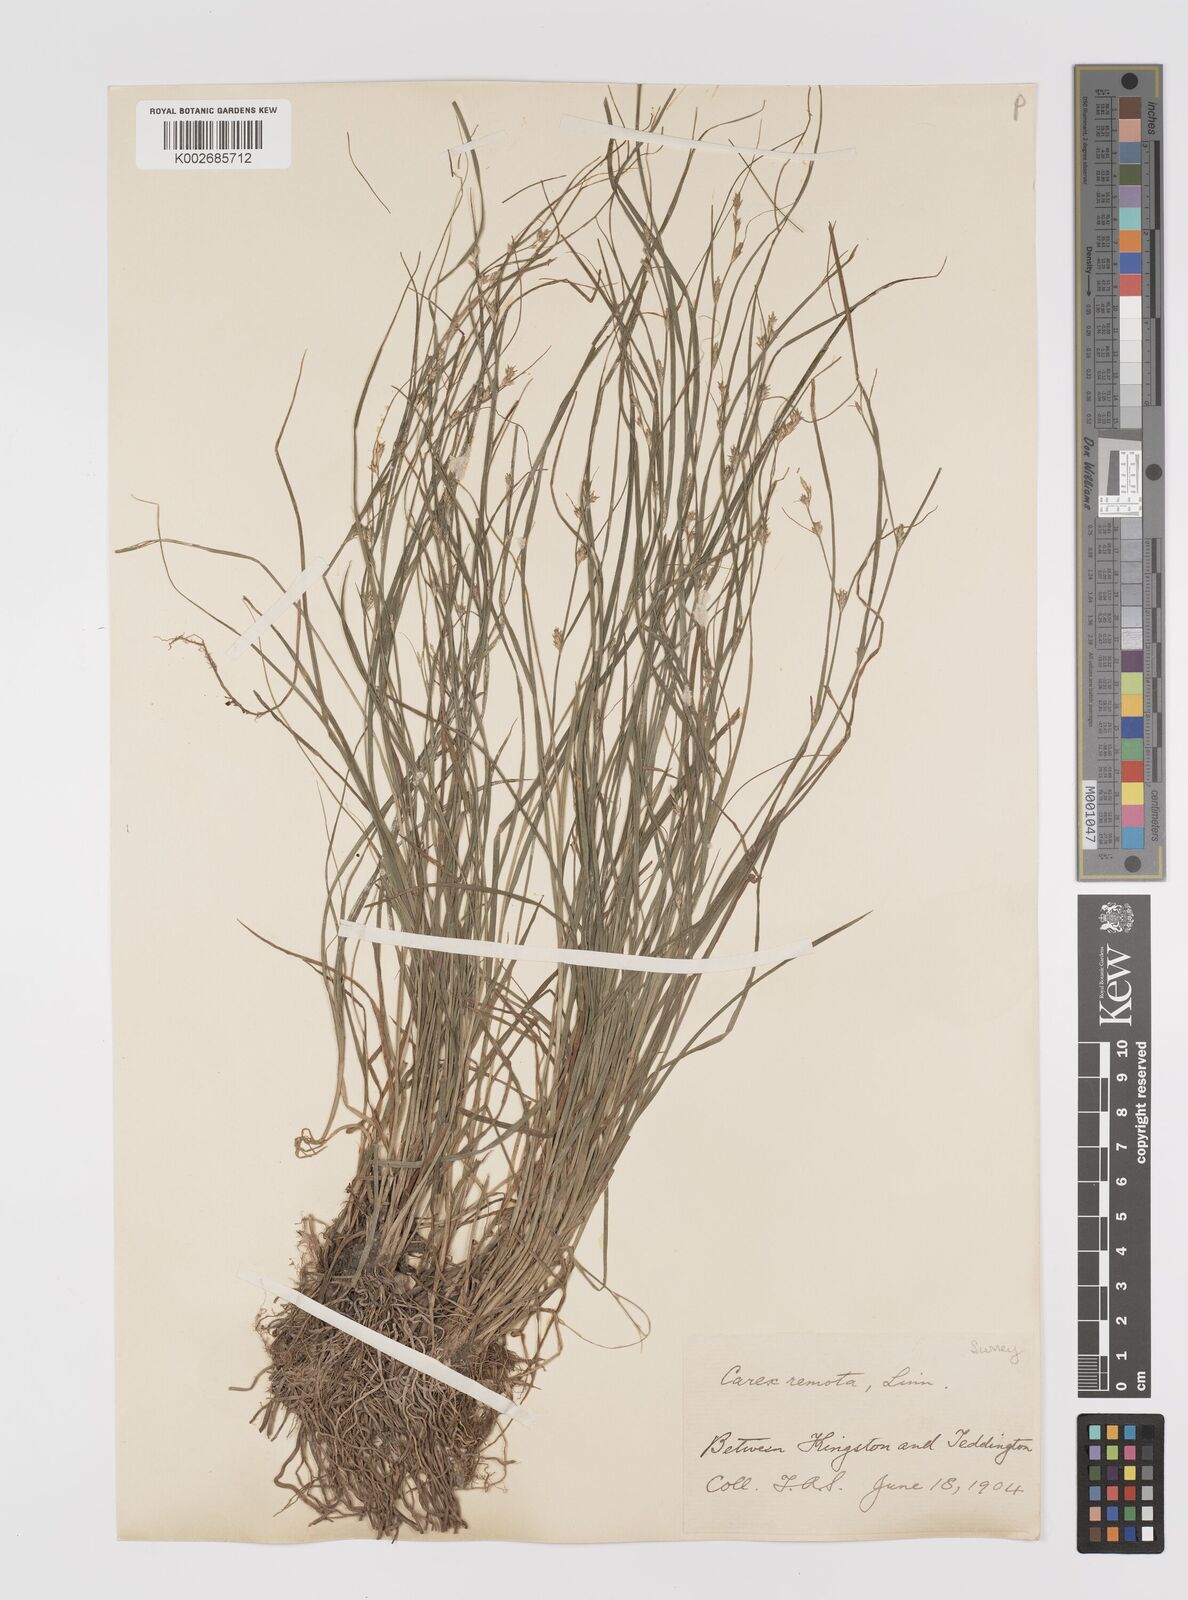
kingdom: Plantae
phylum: Tracheophyta
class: Liliopsida
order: Poales
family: Cyperaceae
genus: Carex
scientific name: Carex remota
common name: Remote sedge
